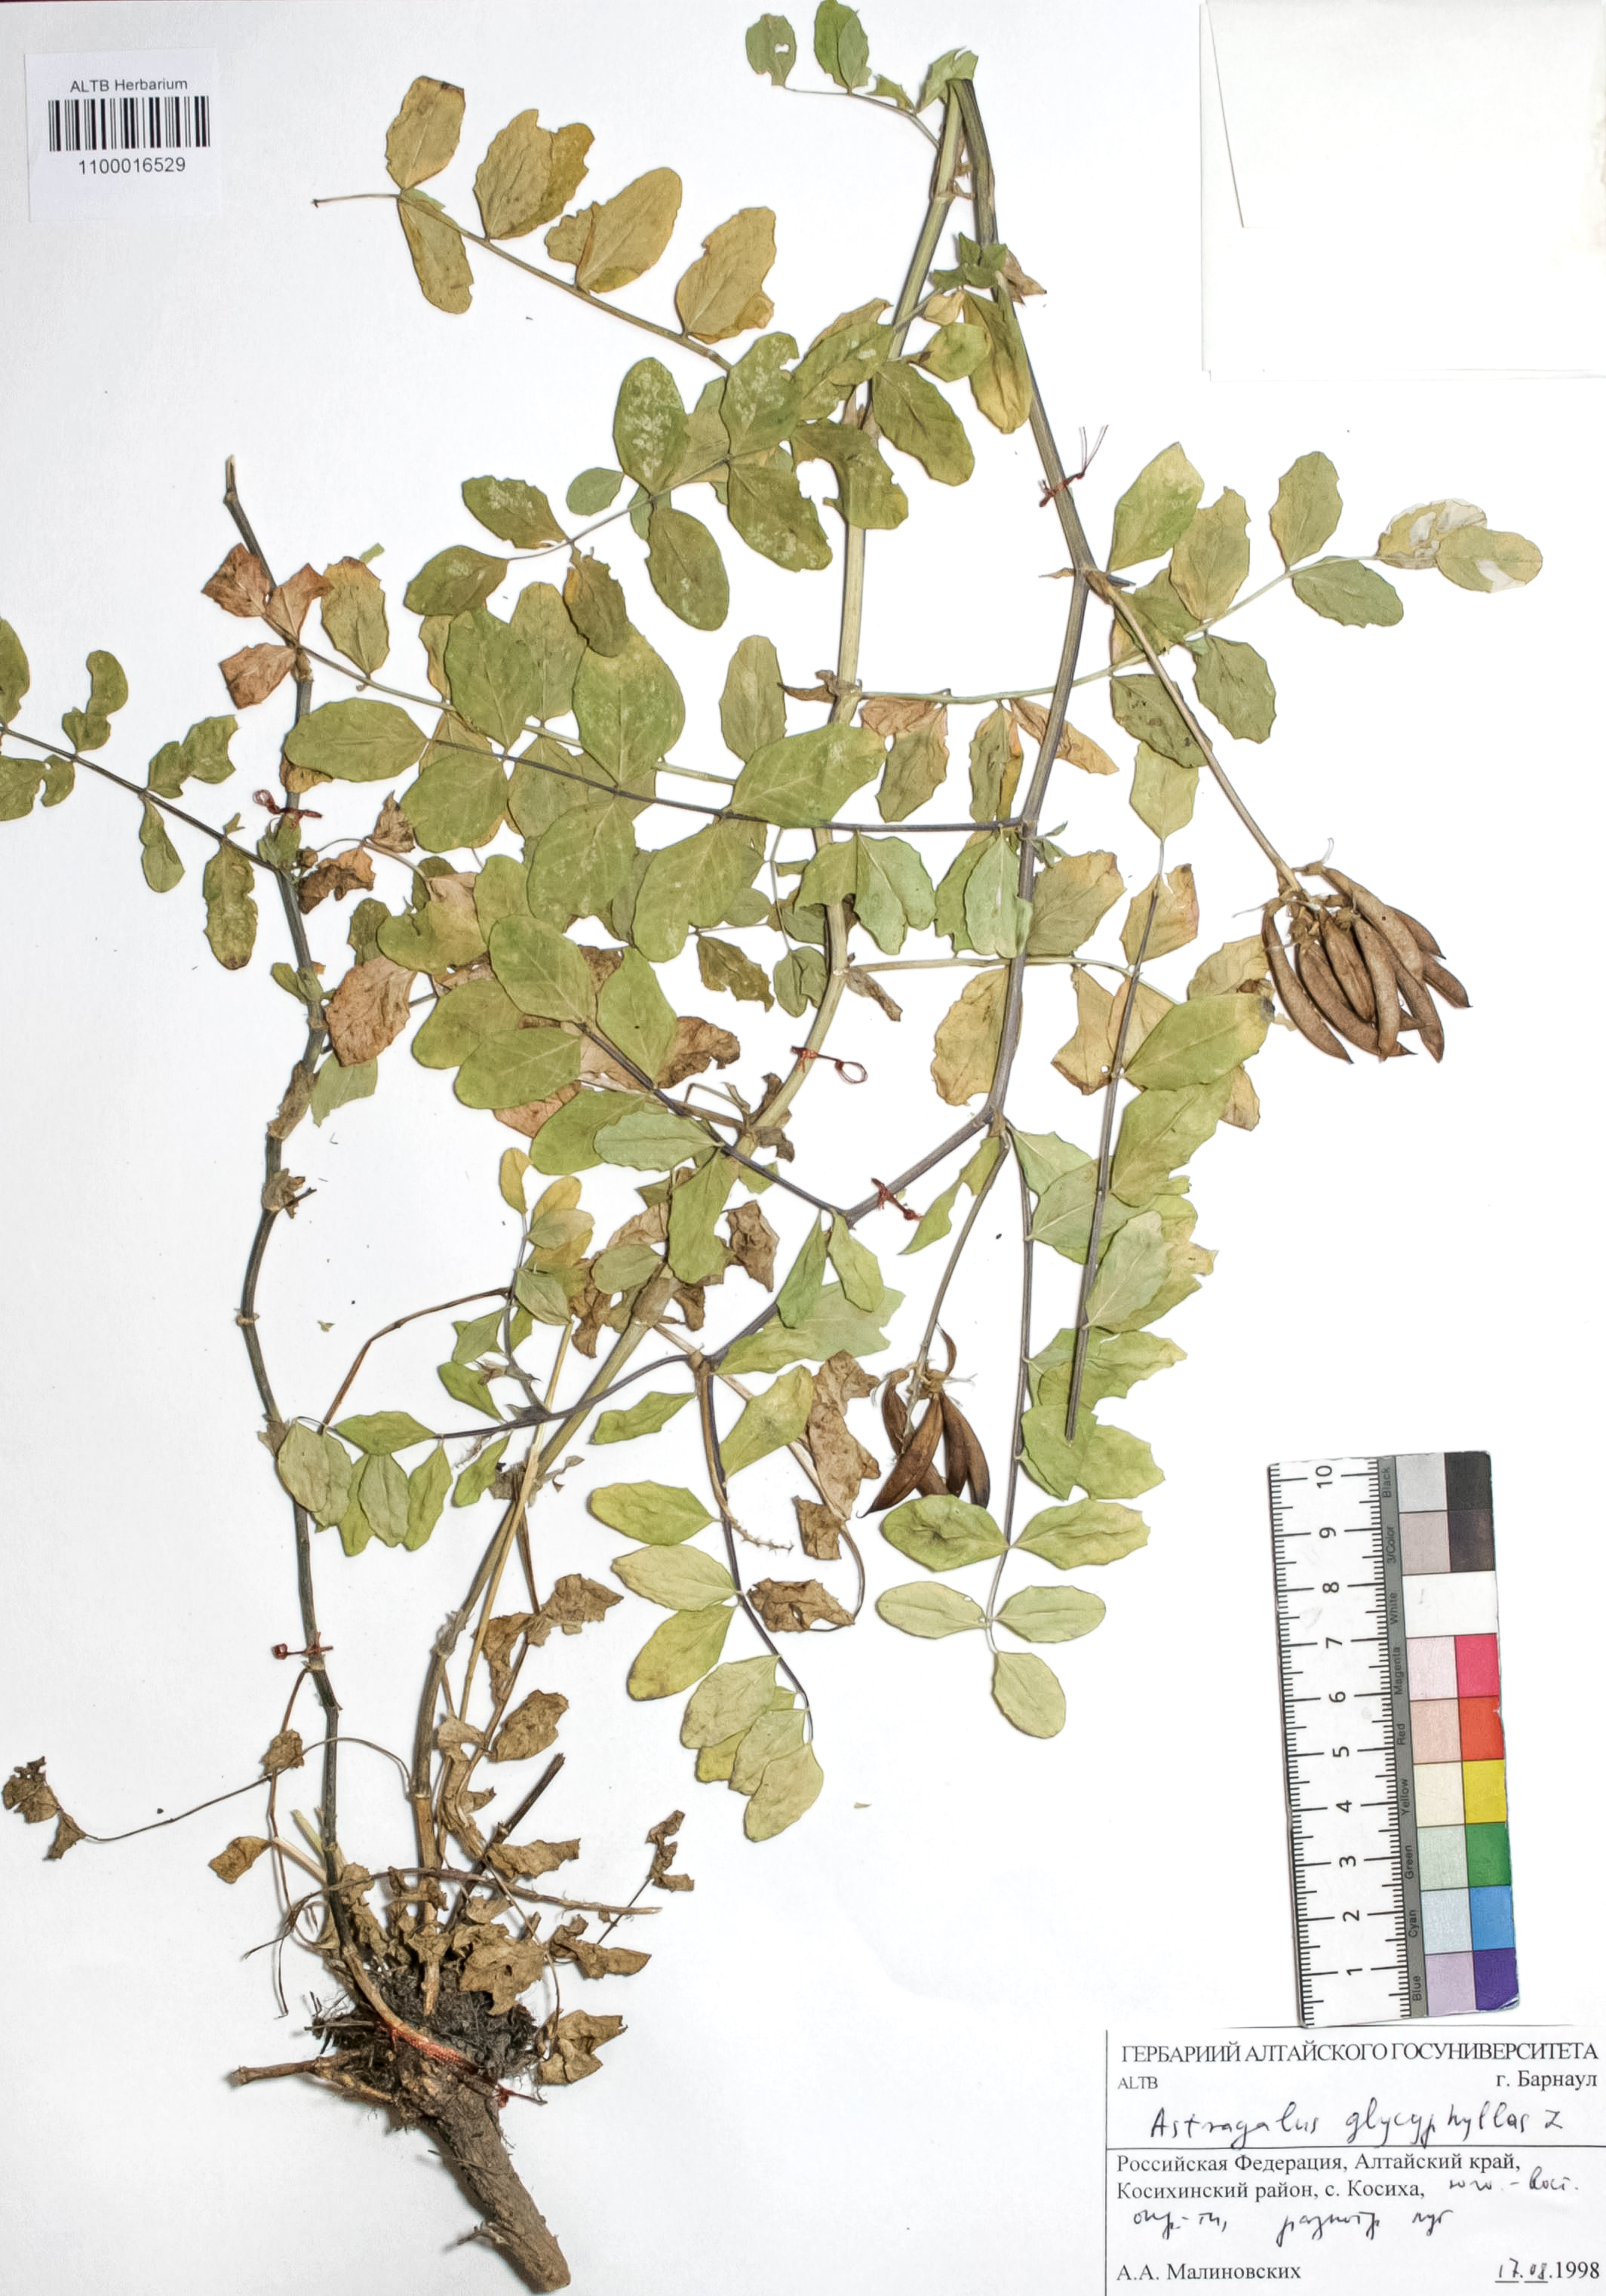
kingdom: Plantae
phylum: Tracheophyta
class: Magnoliopsida
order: Fabales
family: Fabaceae
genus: Astragalus
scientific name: Astragalus glycyphyllos
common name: Wild liquorice
